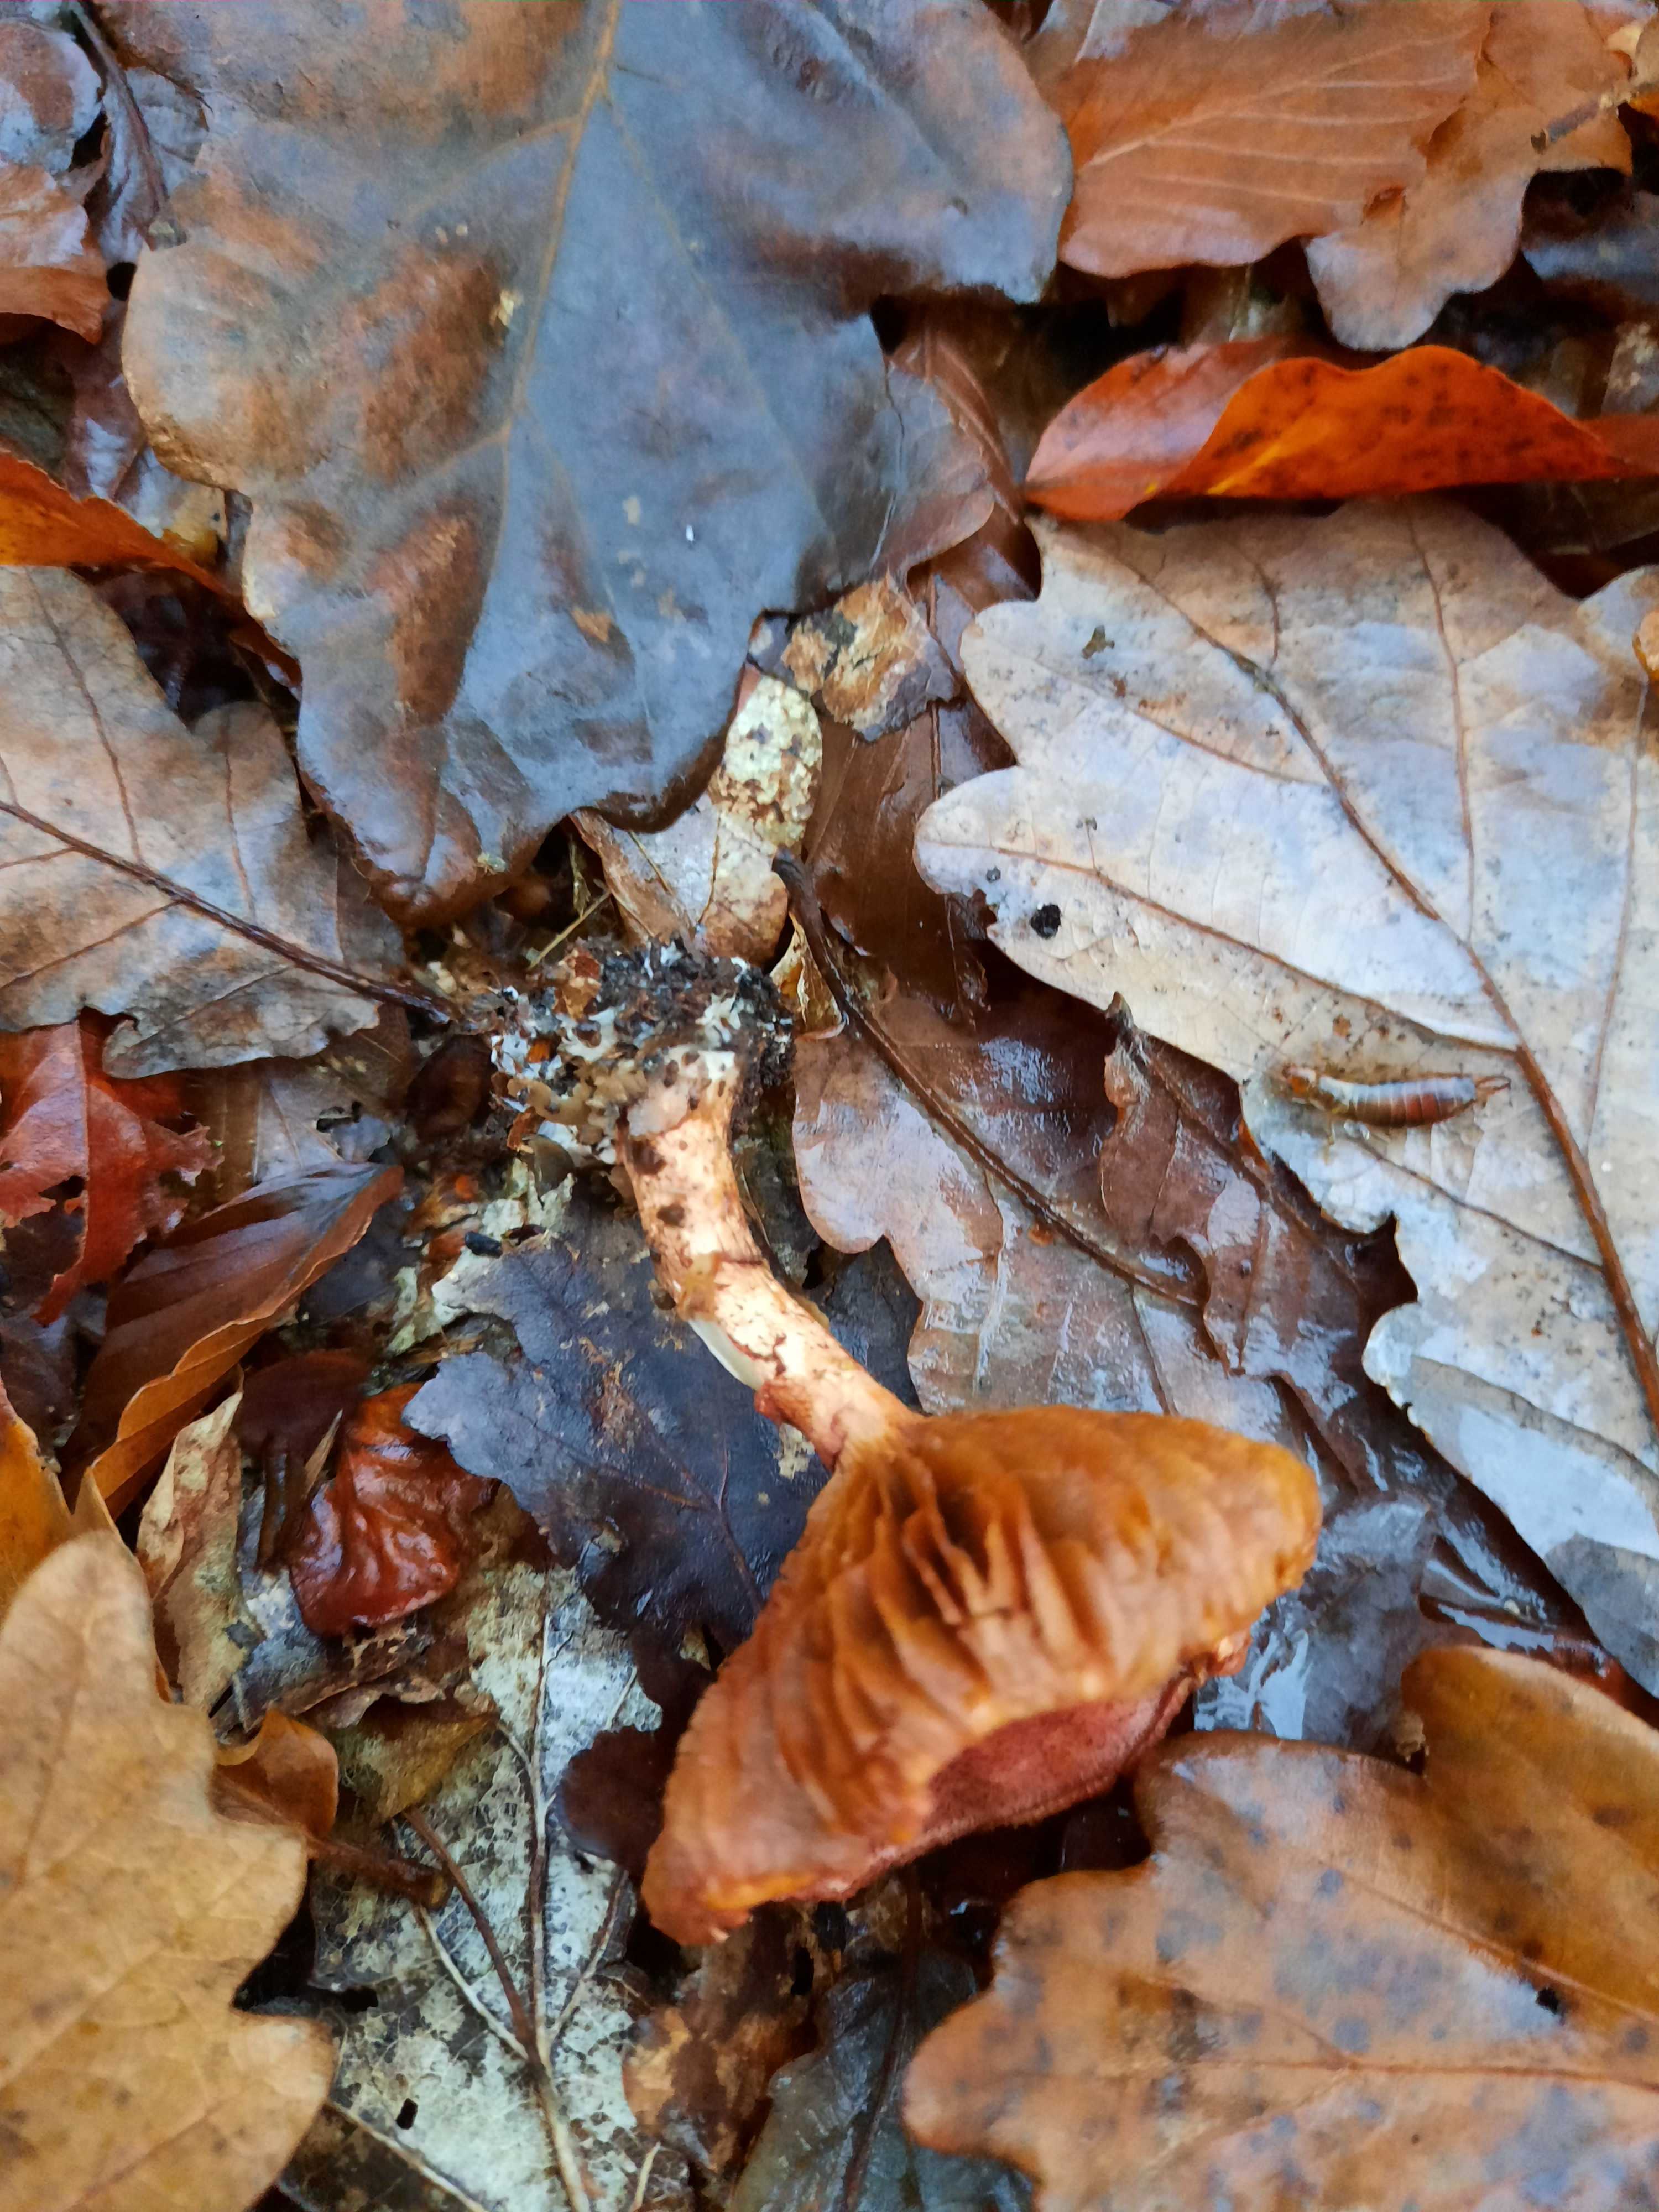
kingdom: Fungi
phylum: Basidiomycota
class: Agaricomycetes
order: Agaricales
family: Cortinariaceae
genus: Cortinarius
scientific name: Cortinarius bolaris
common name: cinnoberskællet slørhat
